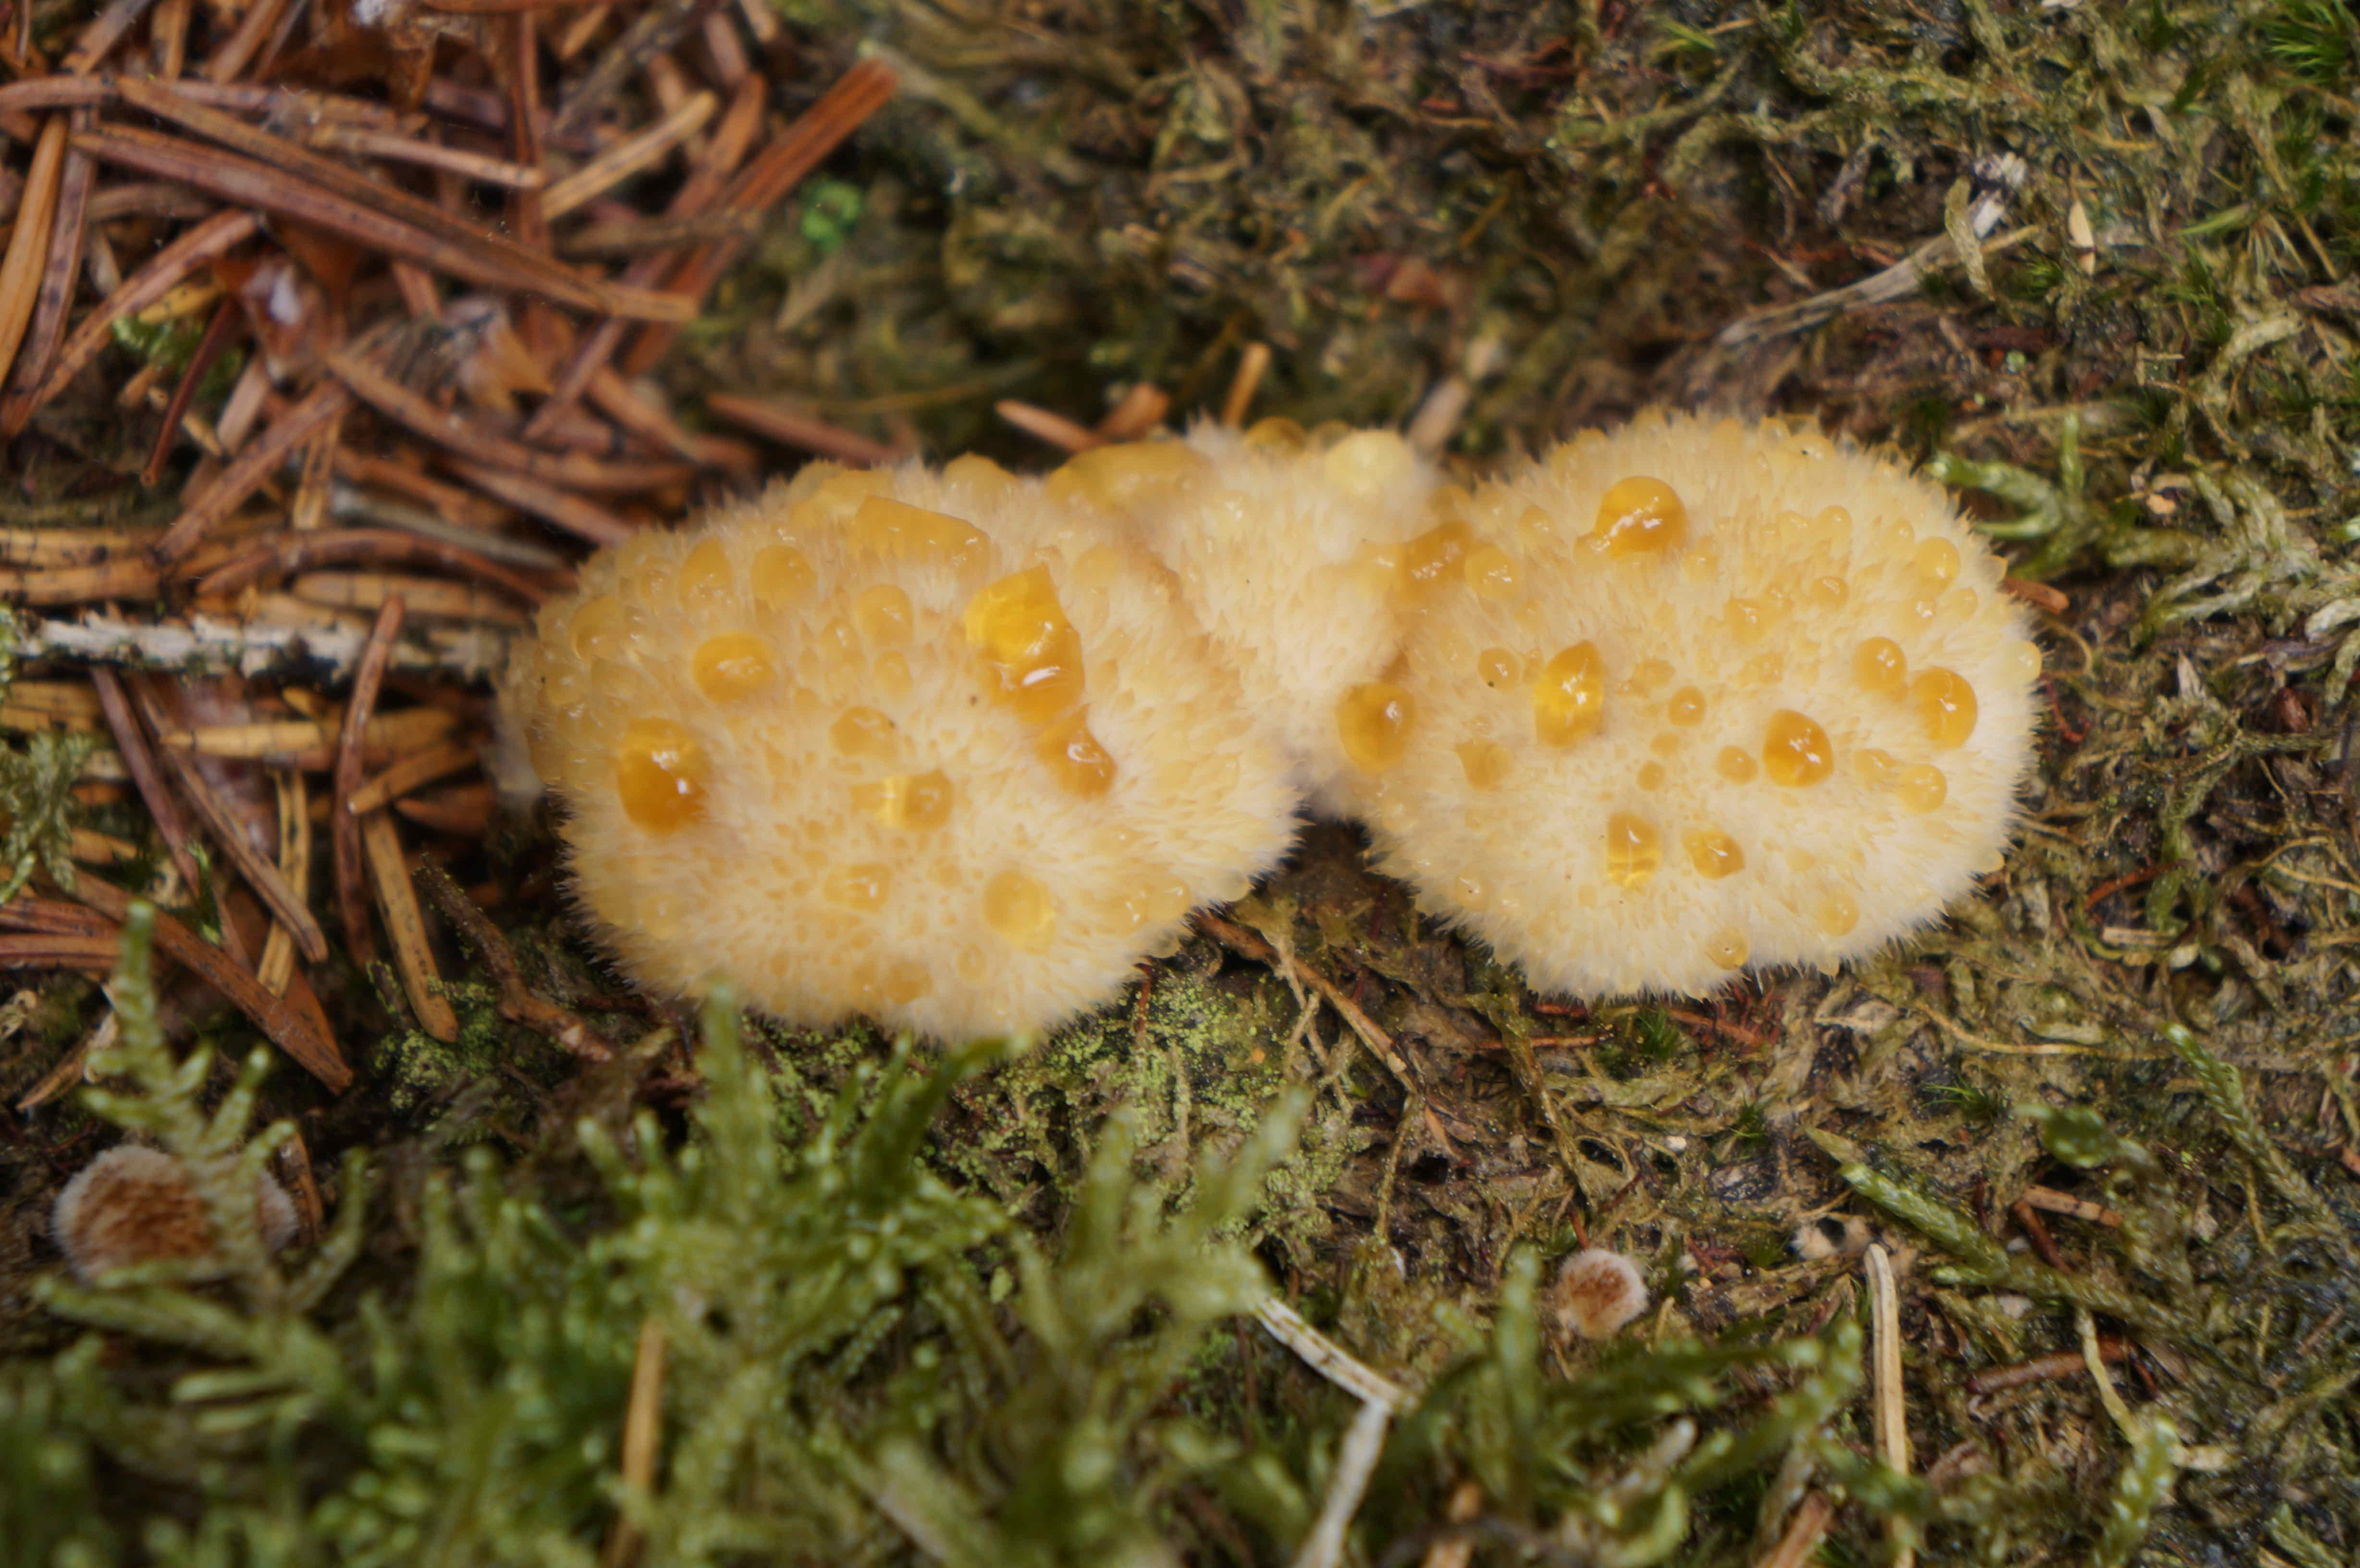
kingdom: Fungi
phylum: Basidiomycota
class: Agaricomycetes
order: Polyporales
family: Dacryobolaceae
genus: Postia
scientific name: Postia ptychogaster
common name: støvende kødporesvamp
